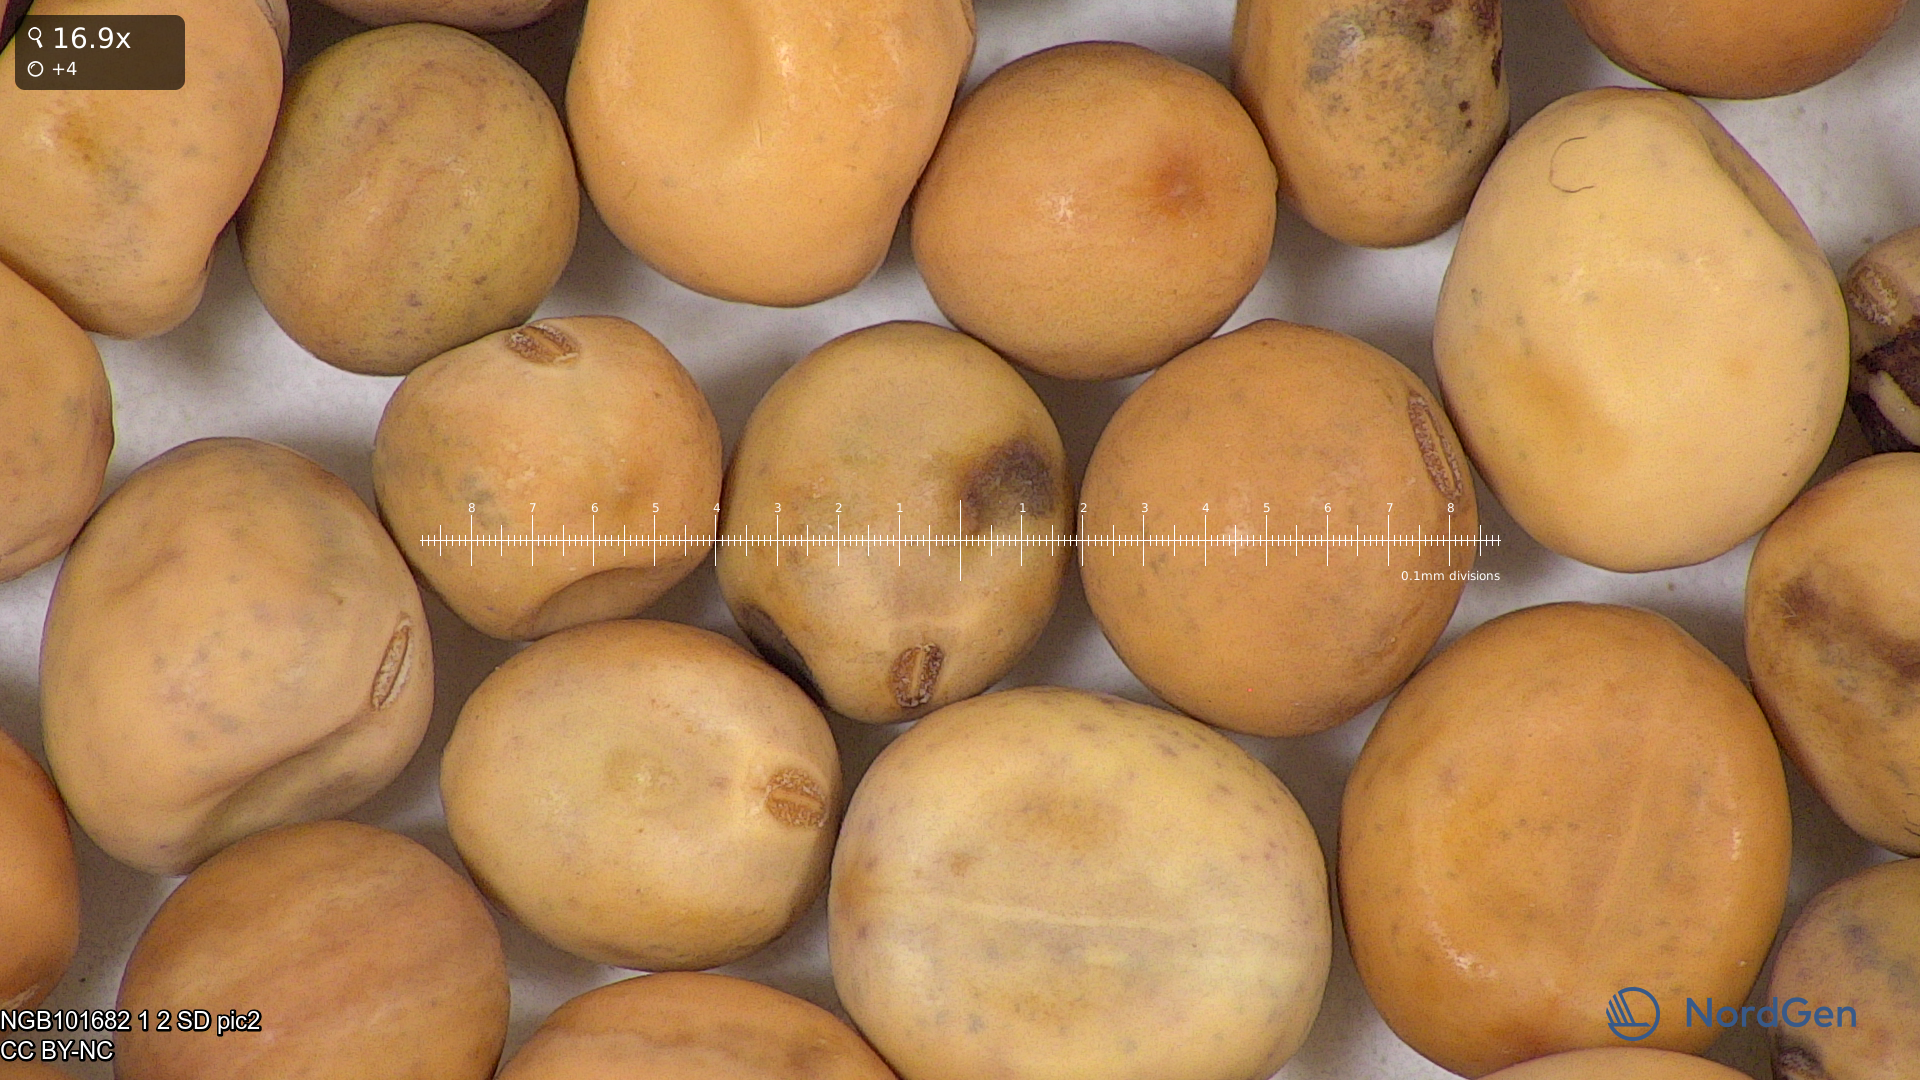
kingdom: Plantae
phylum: Tracheophyta
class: Magnoliopsida
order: Fabales
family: Fabaceae
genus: Lathyrus
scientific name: Lathyrus oleraceus
